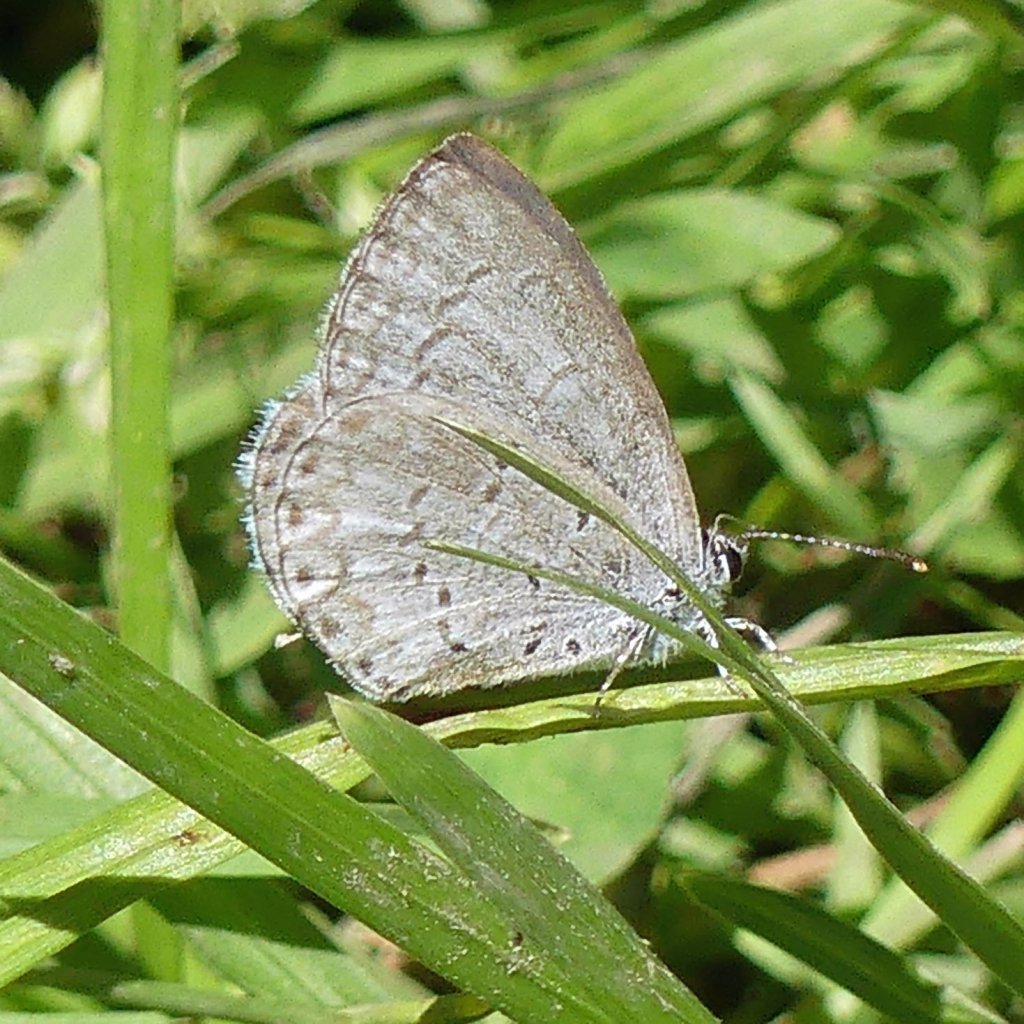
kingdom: Animalia
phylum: Arthropoda
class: Insecta
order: Lepidoptera
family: Lycaenidae
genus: Celastrina
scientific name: Celastrina lucia
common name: Northern Spring Azure
